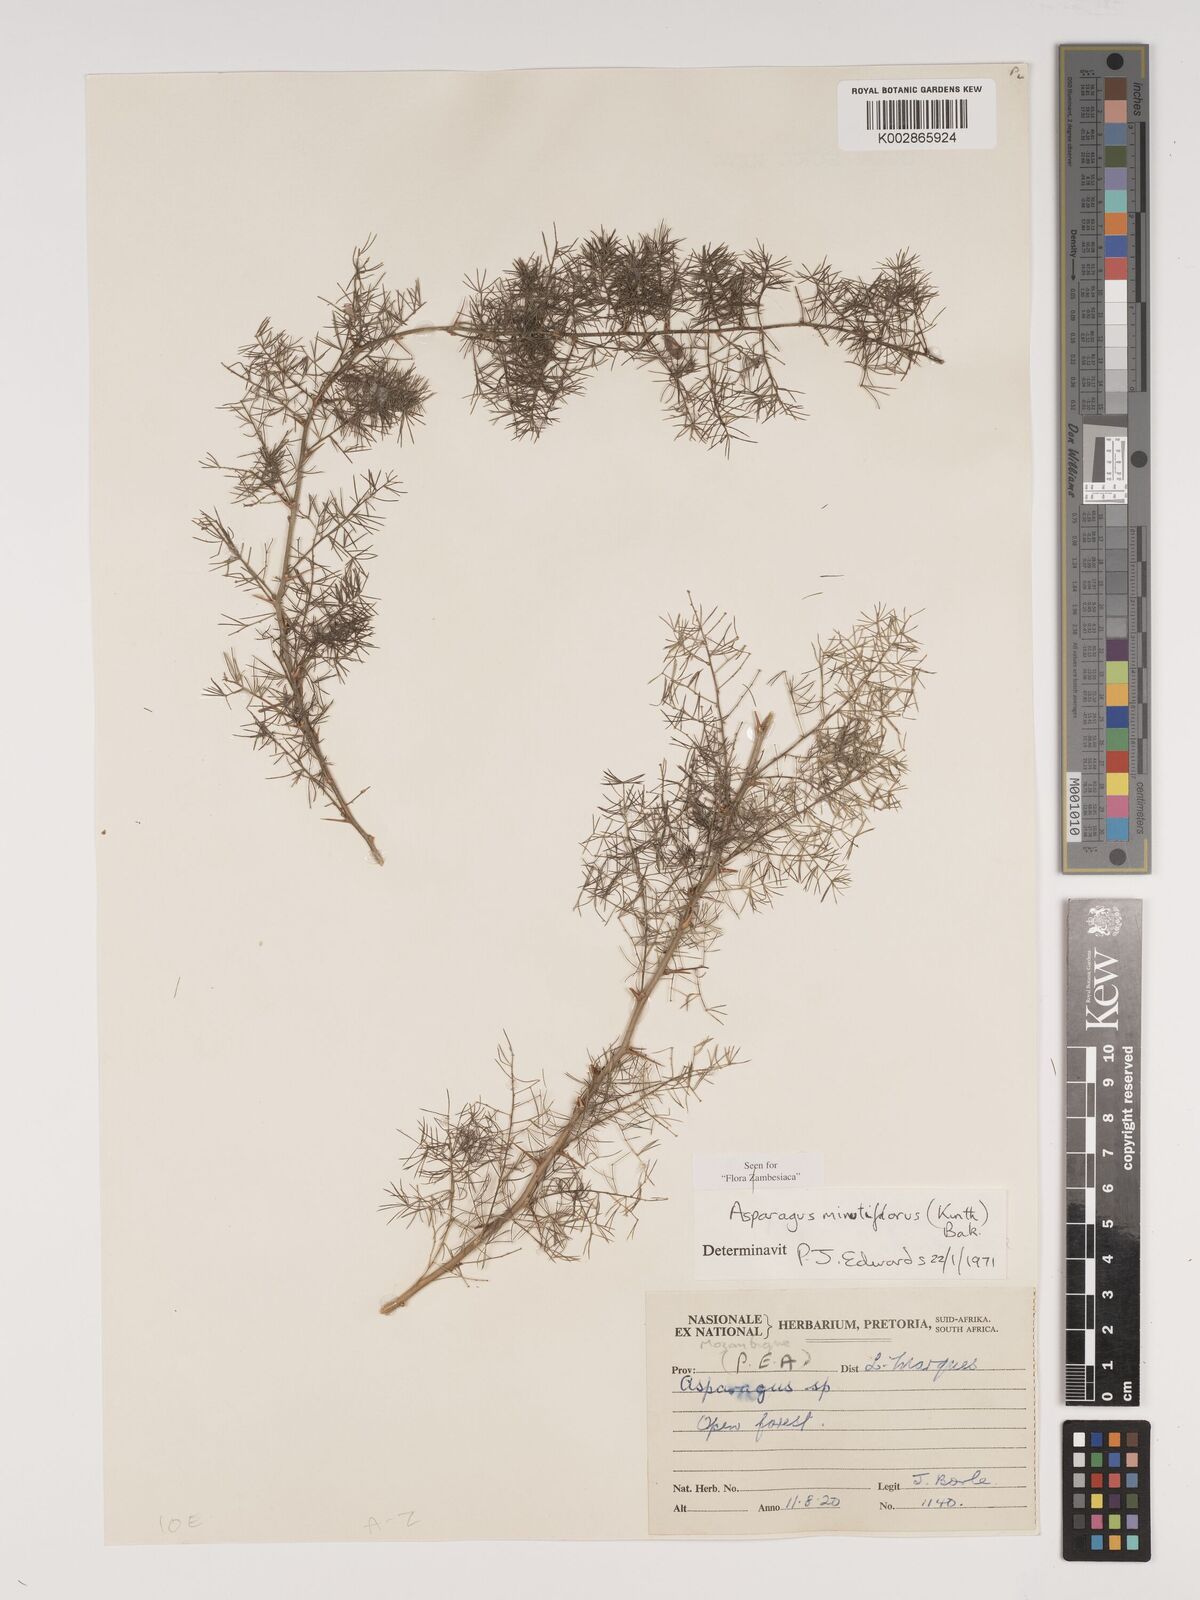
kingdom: Plantae
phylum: Tracheophyta
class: Liliopsida
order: Asparagales
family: Asparagaceae
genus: Asparagus
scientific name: Asparagus minutiflorus
